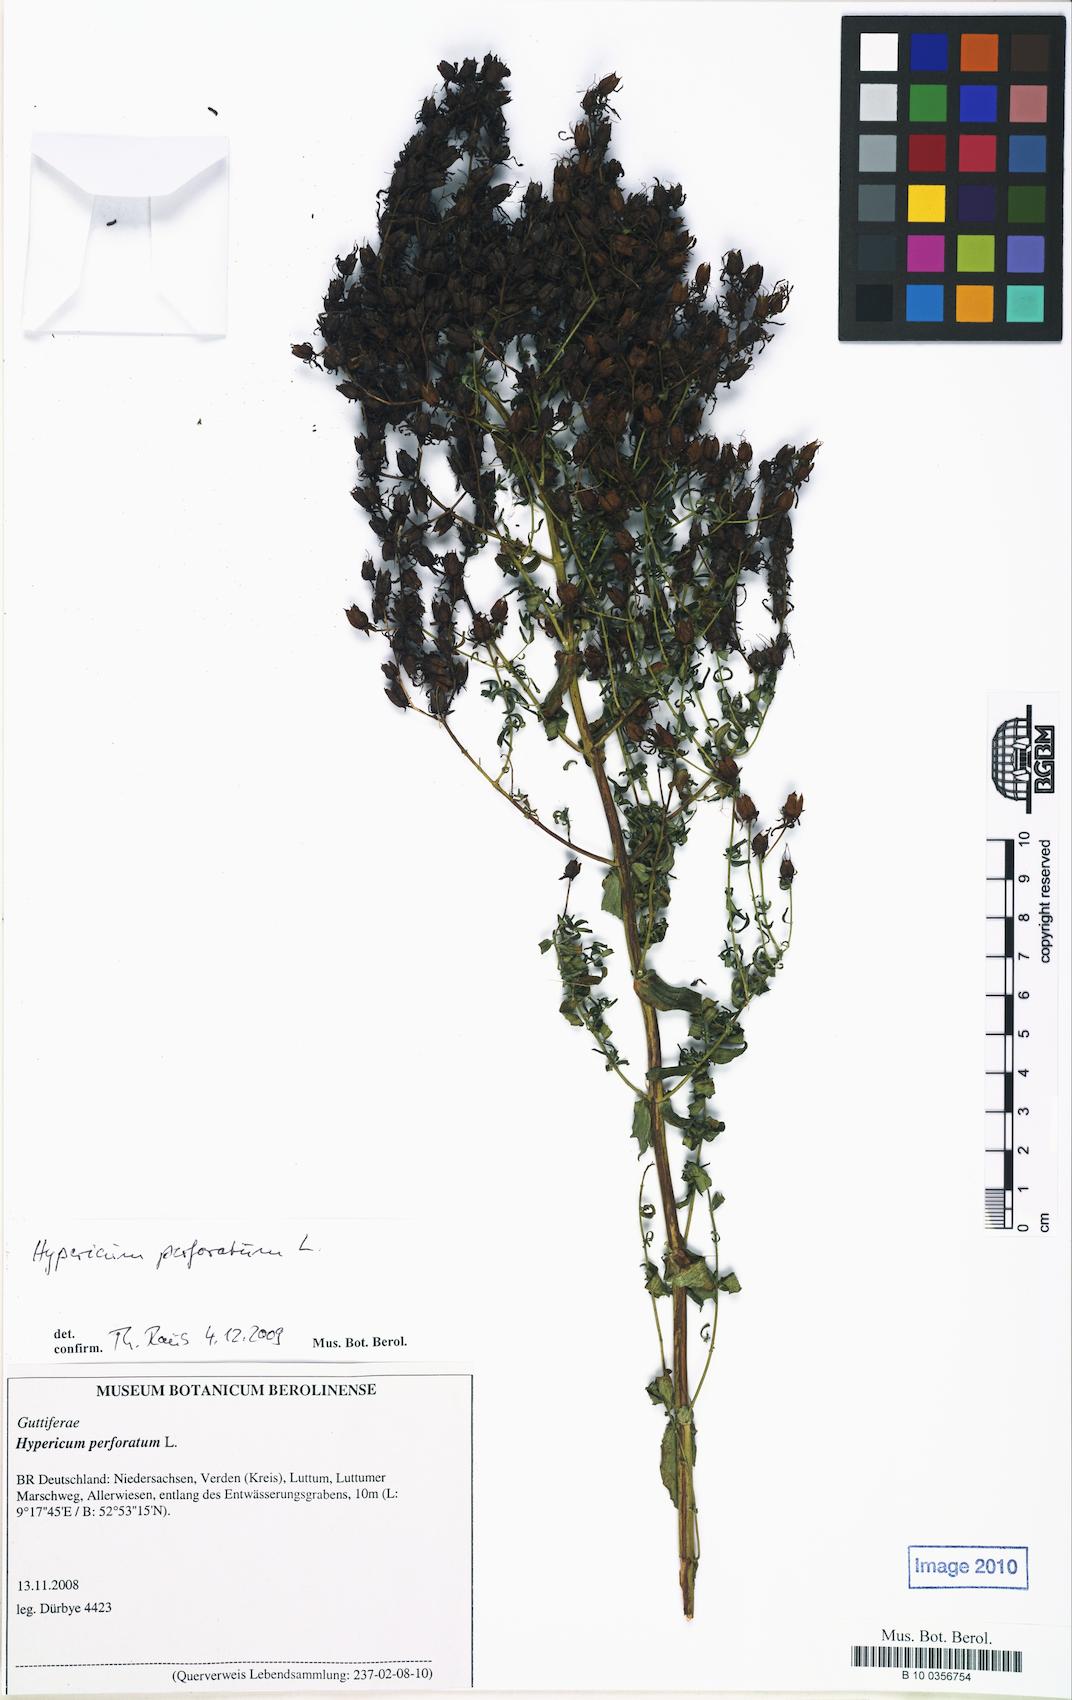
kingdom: Plantae
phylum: Tracheophyta
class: Magnoliopsida
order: Malpighiales
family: Hypericaceae
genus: Hypericum
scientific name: Hypericum perforatum
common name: Common st. johnswort
